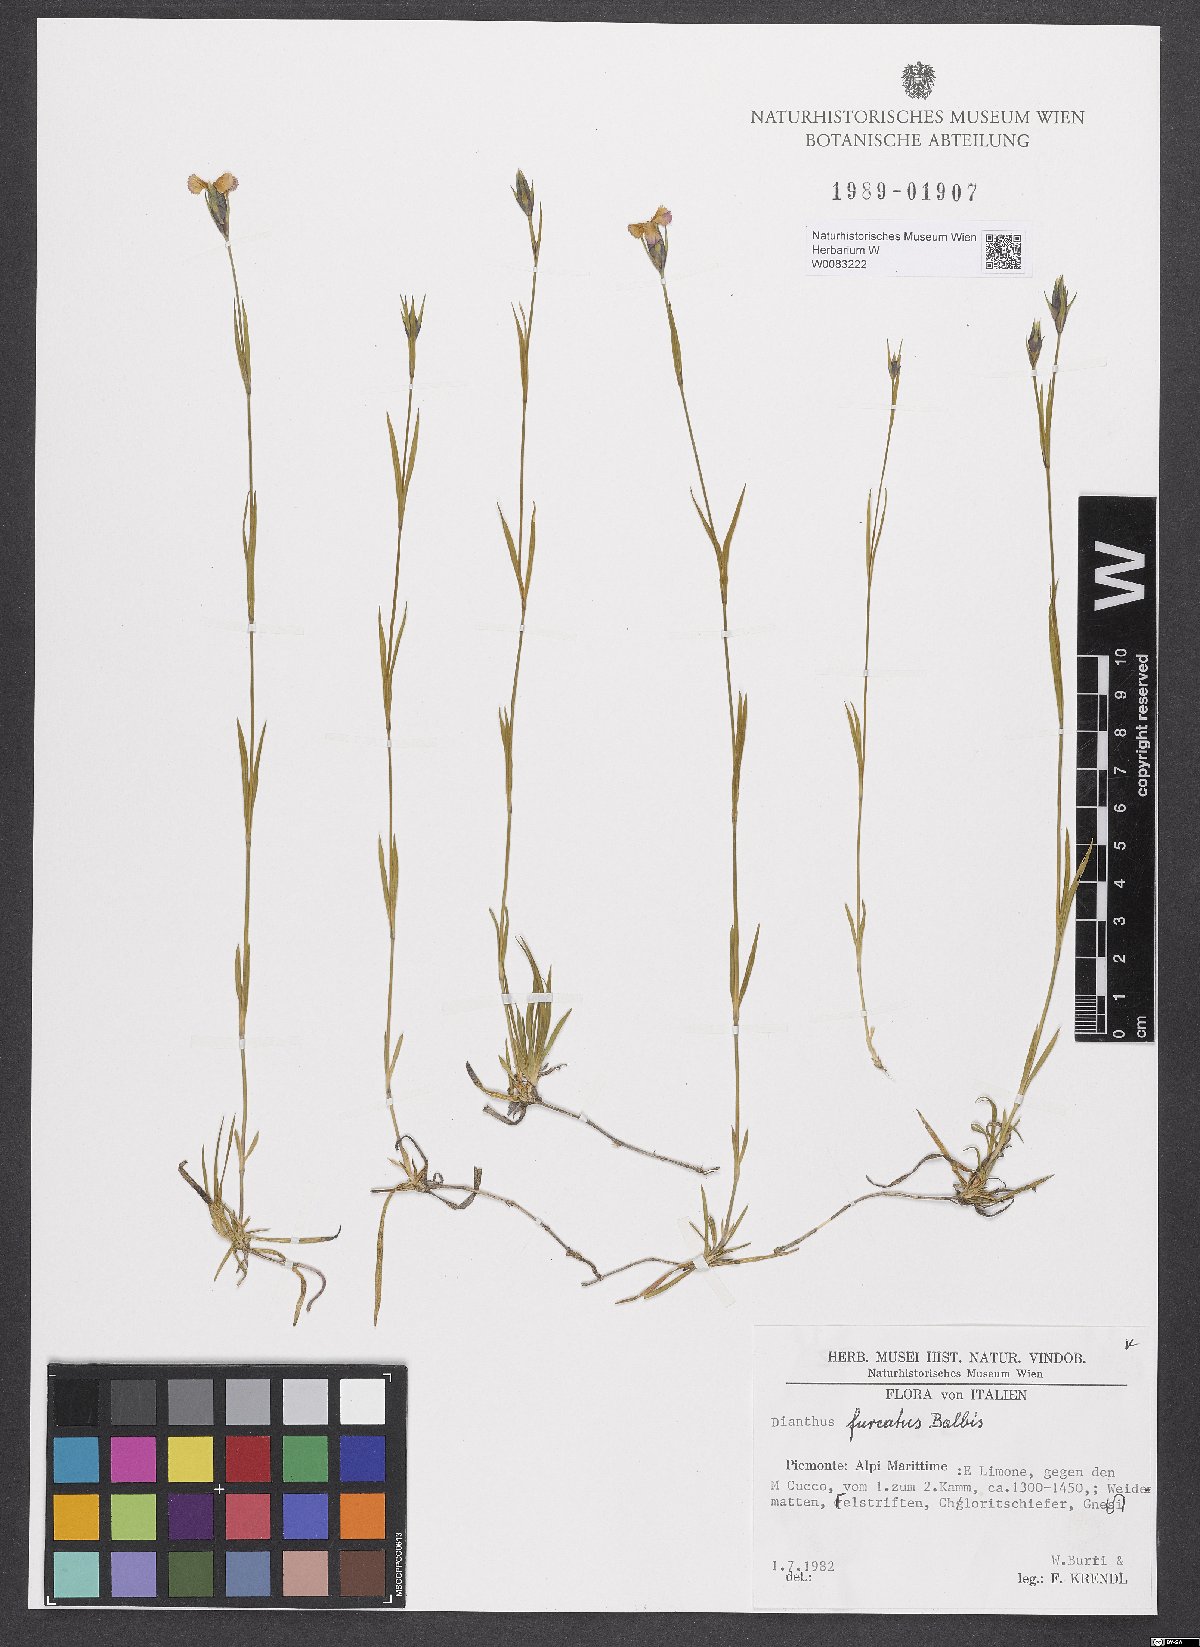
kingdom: Plantae
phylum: Tracheophyta
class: Magnoliopsida
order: Caryophyllales
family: Caryophyllaceae
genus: Dianthus
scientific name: Dianthus furcatus
